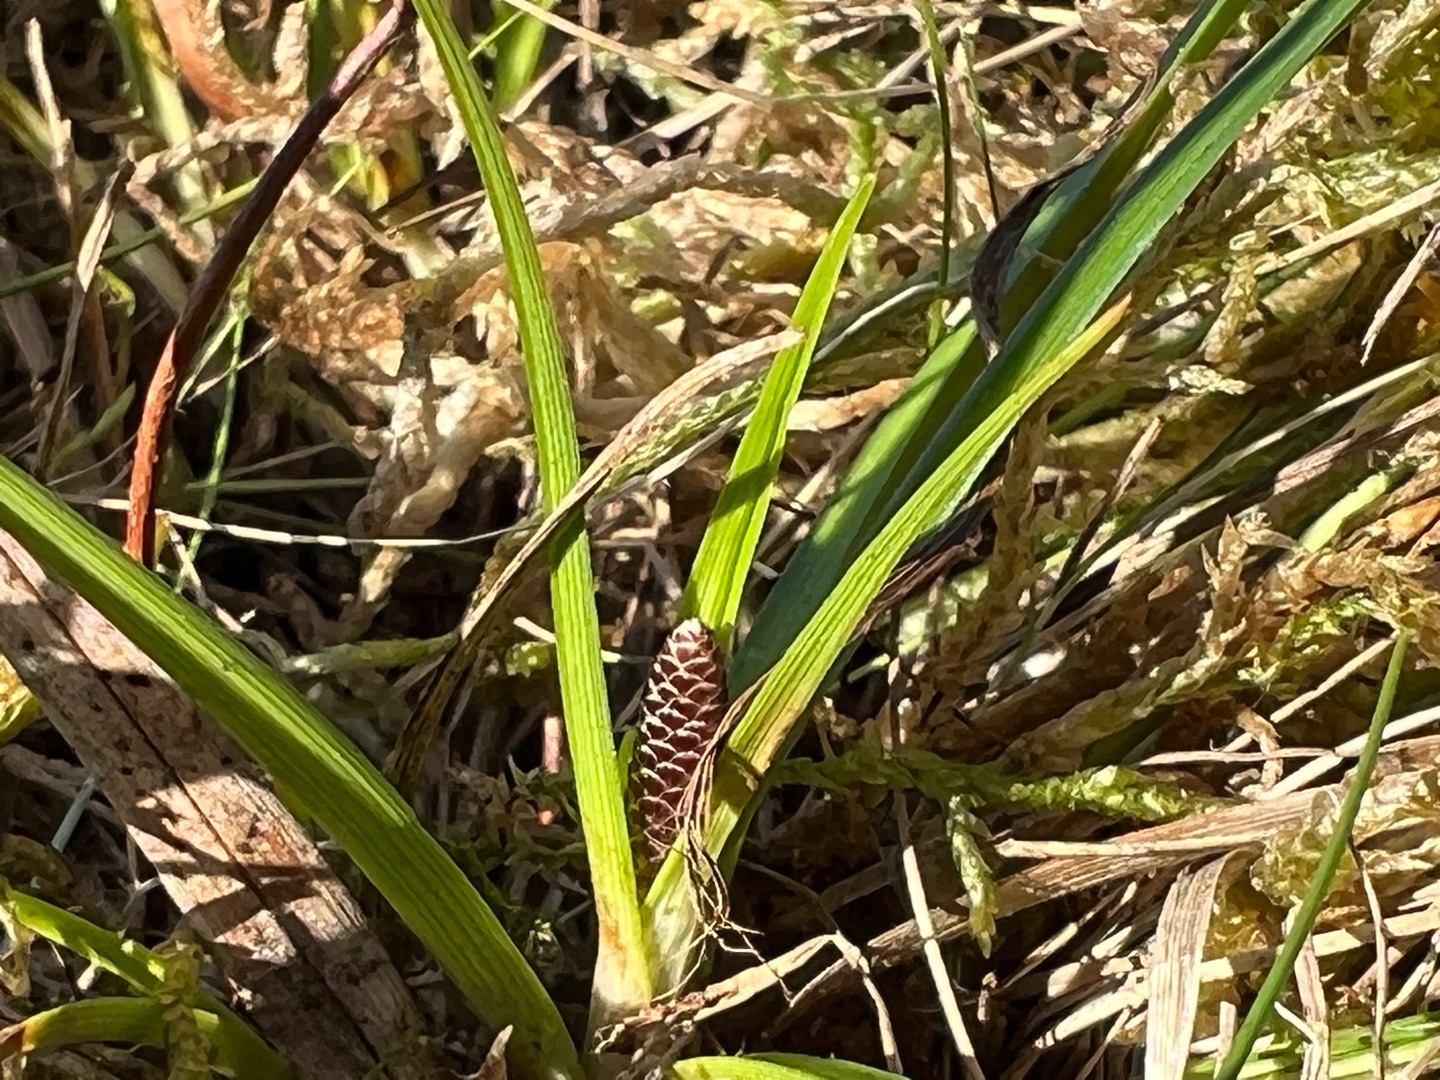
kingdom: Plantae
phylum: Tracheophyta
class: Liliopsida
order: Poales
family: Cyperaceae
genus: Carex
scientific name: Carex ericetorum
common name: Lyng-star
